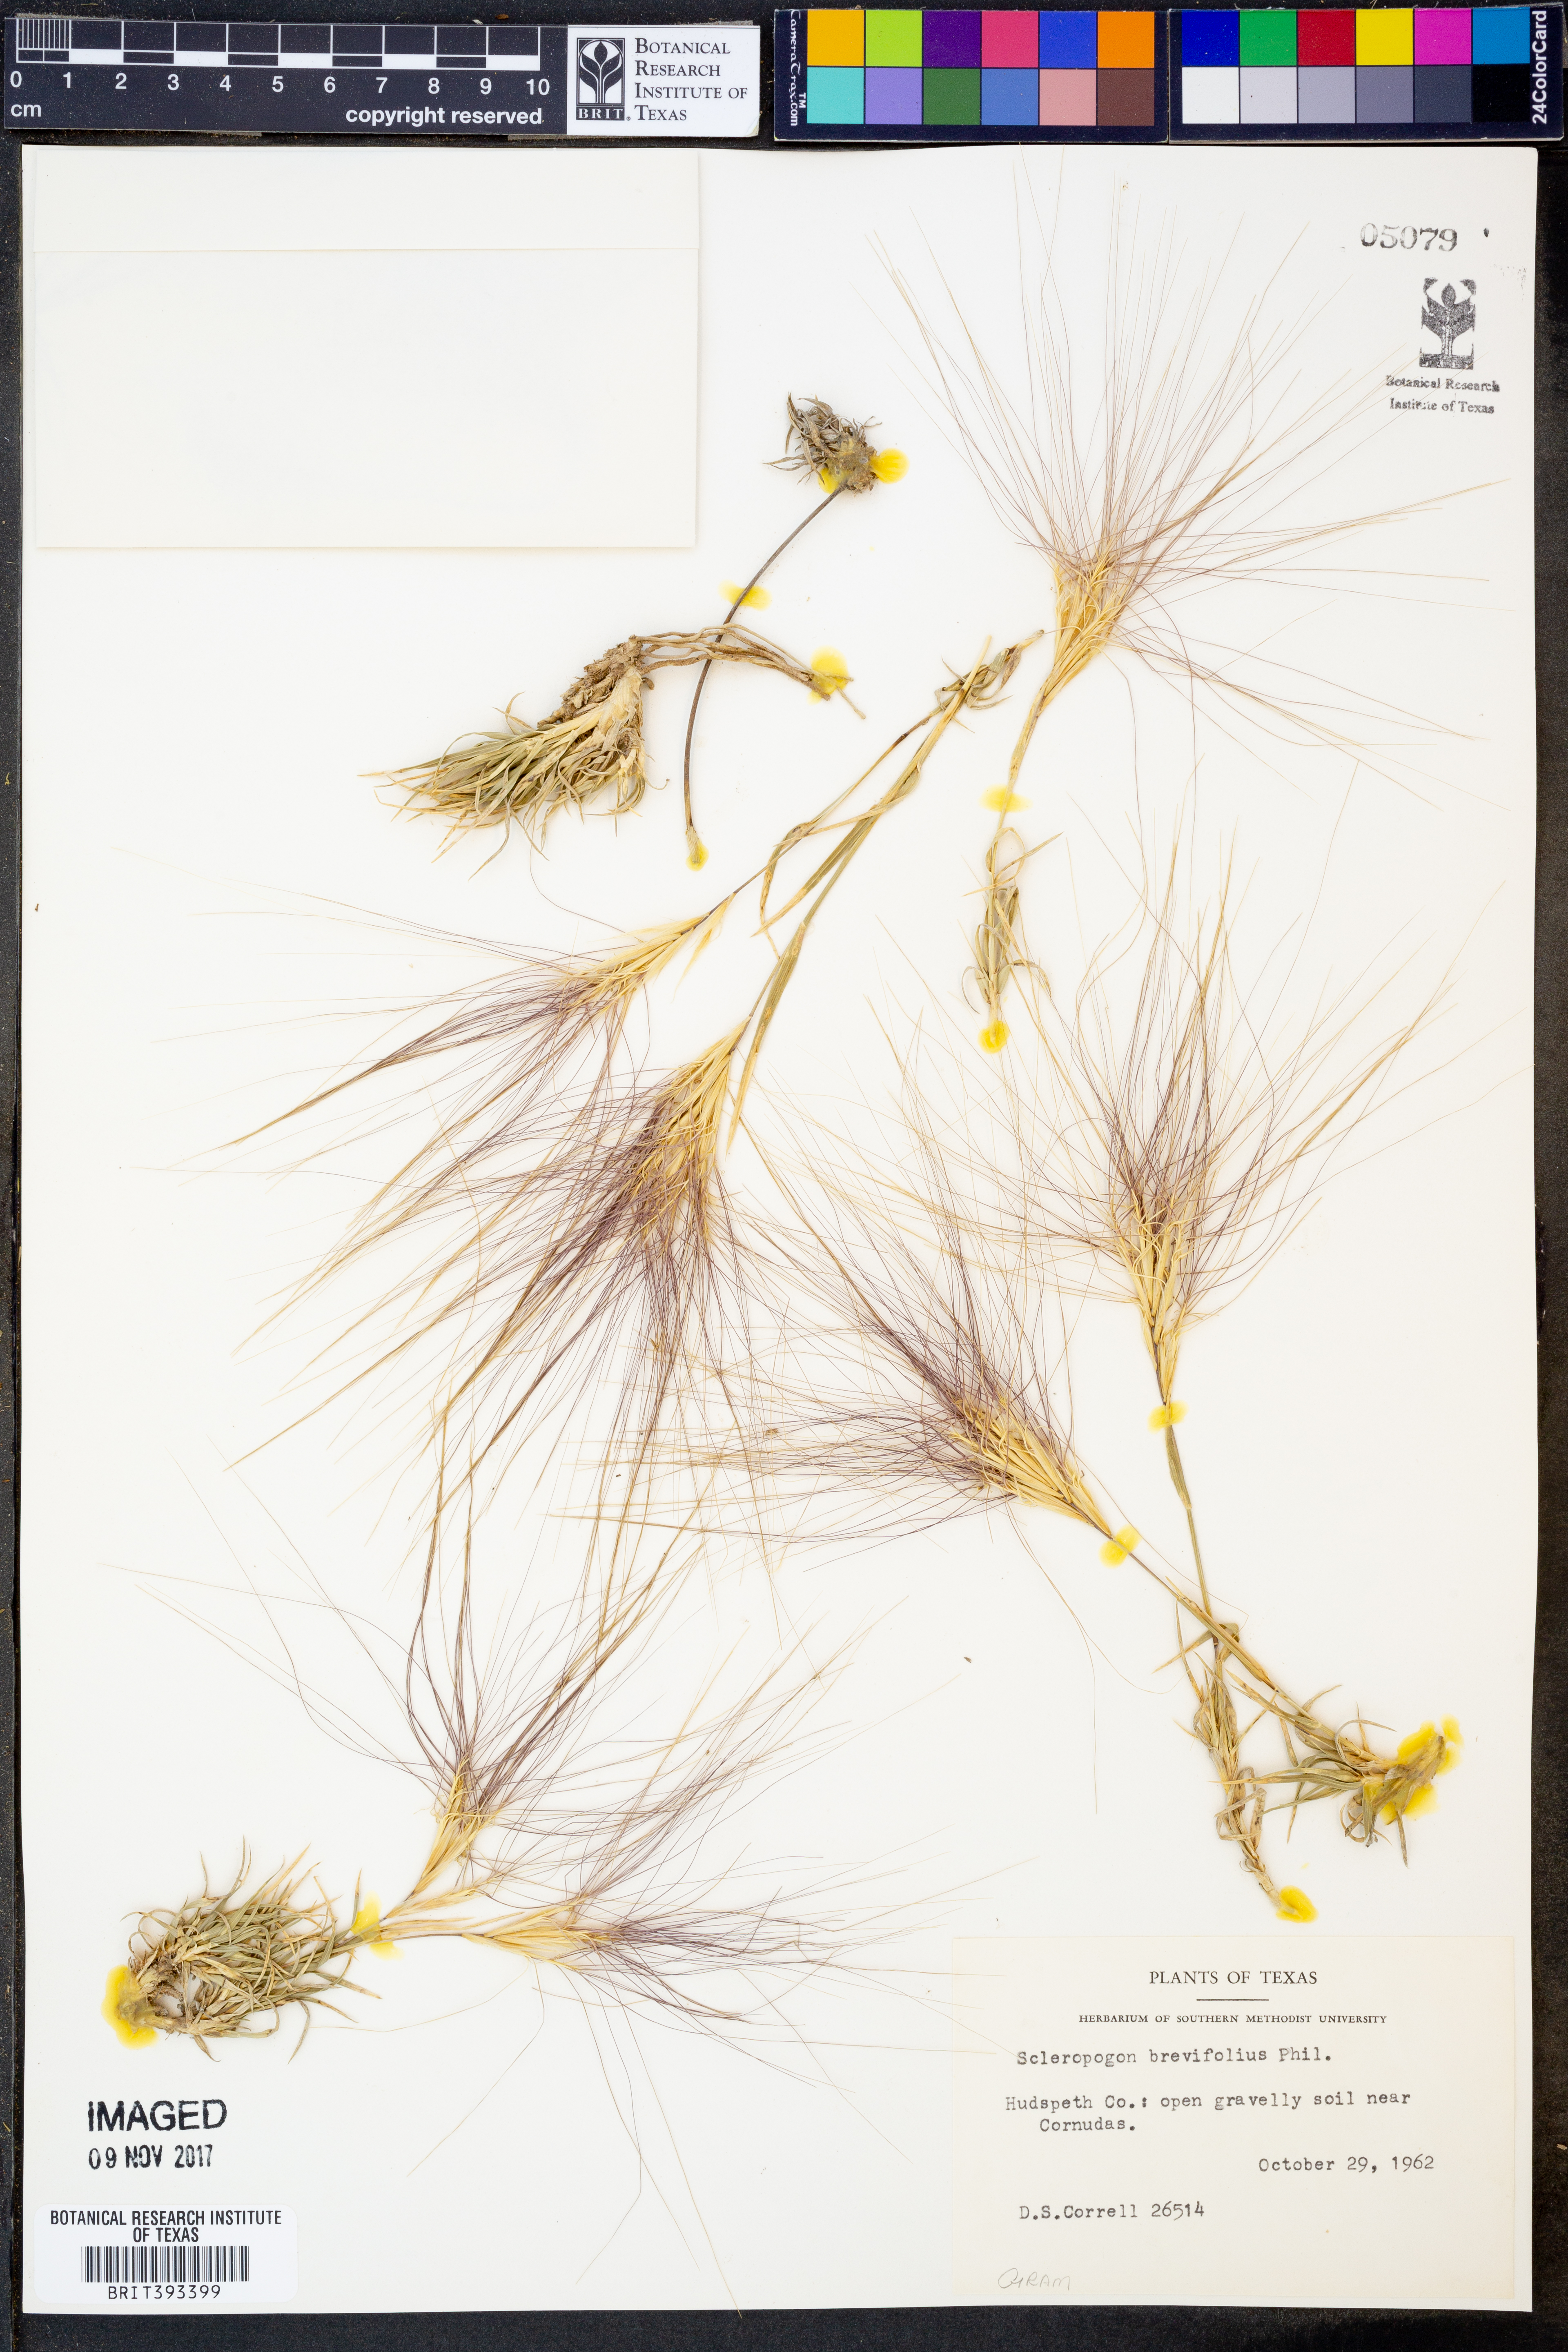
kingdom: Plantae
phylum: Tracheophyta
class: Liliopsida
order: Poales
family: Poaceae
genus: Scleropogon
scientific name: Scleropogon brevifolius
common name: Burro grass
